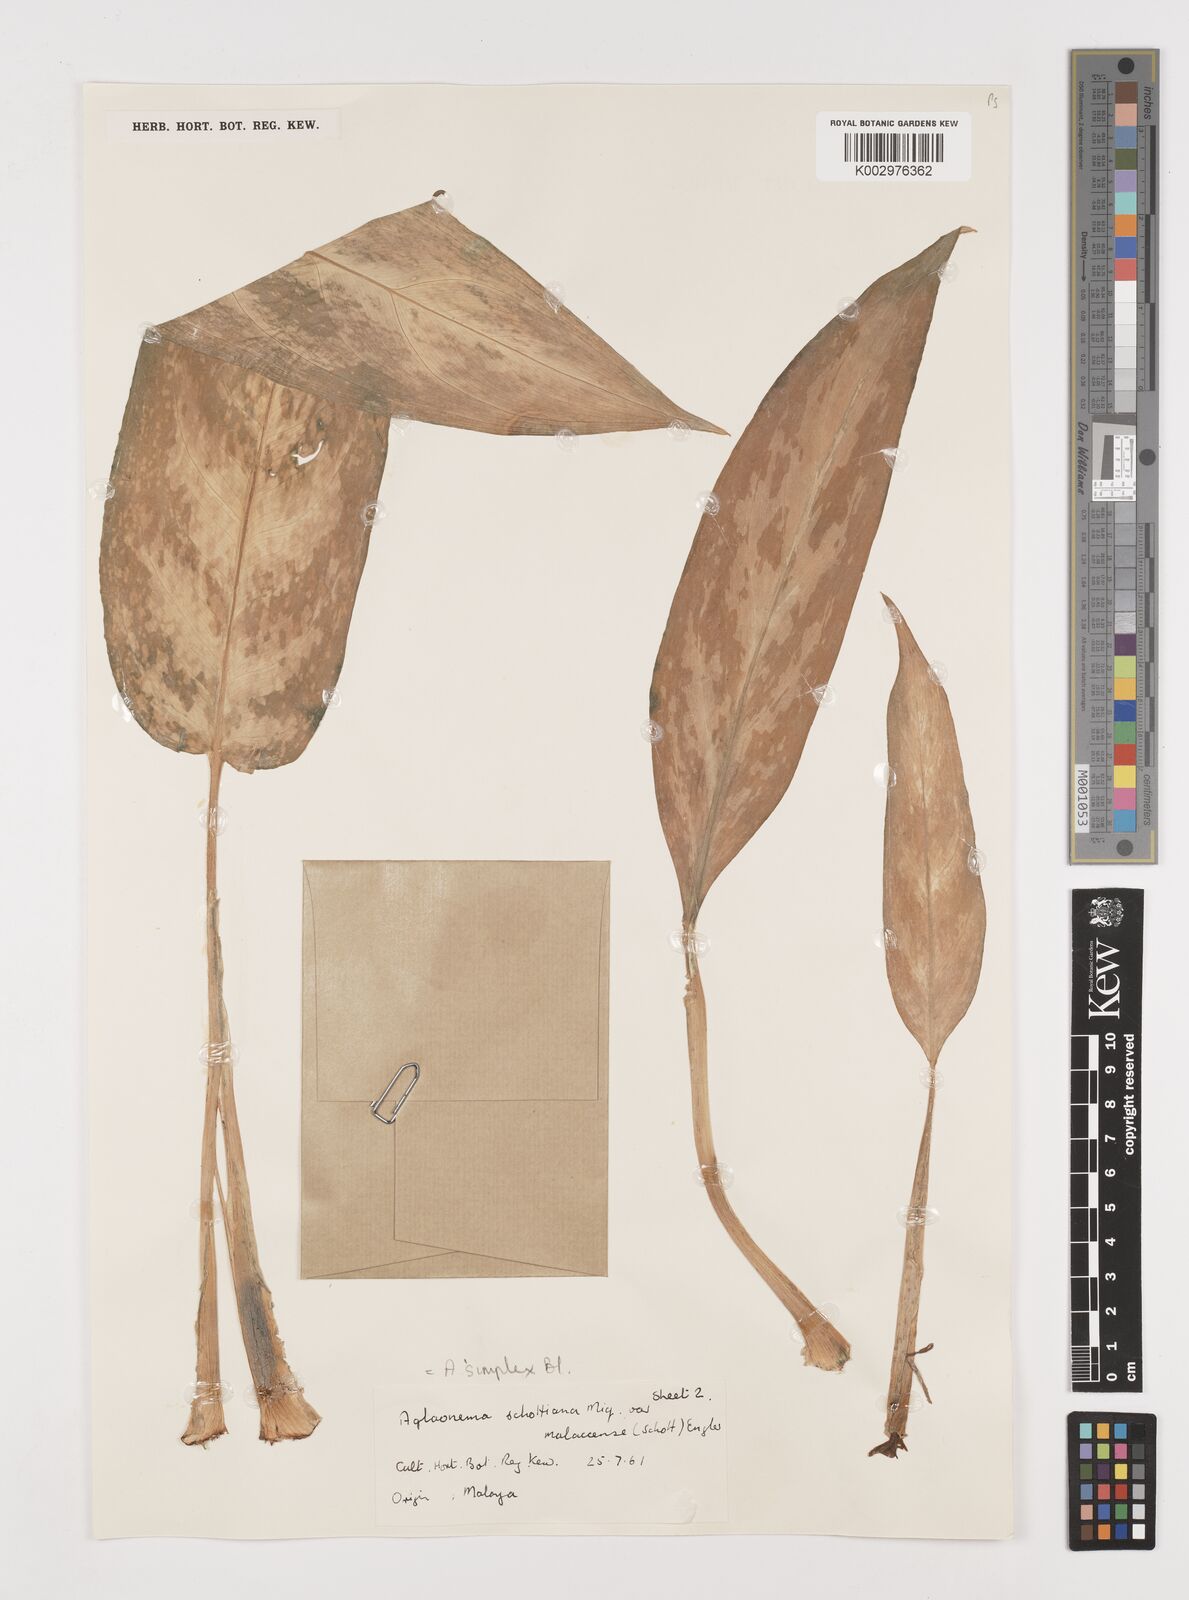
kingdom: Plantae
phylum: Tracheophyta
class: Liliopsida
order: Alismatales
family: Araceae
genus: Aglaonema
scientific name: Aglaonema simplex
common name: Malayan-sword
